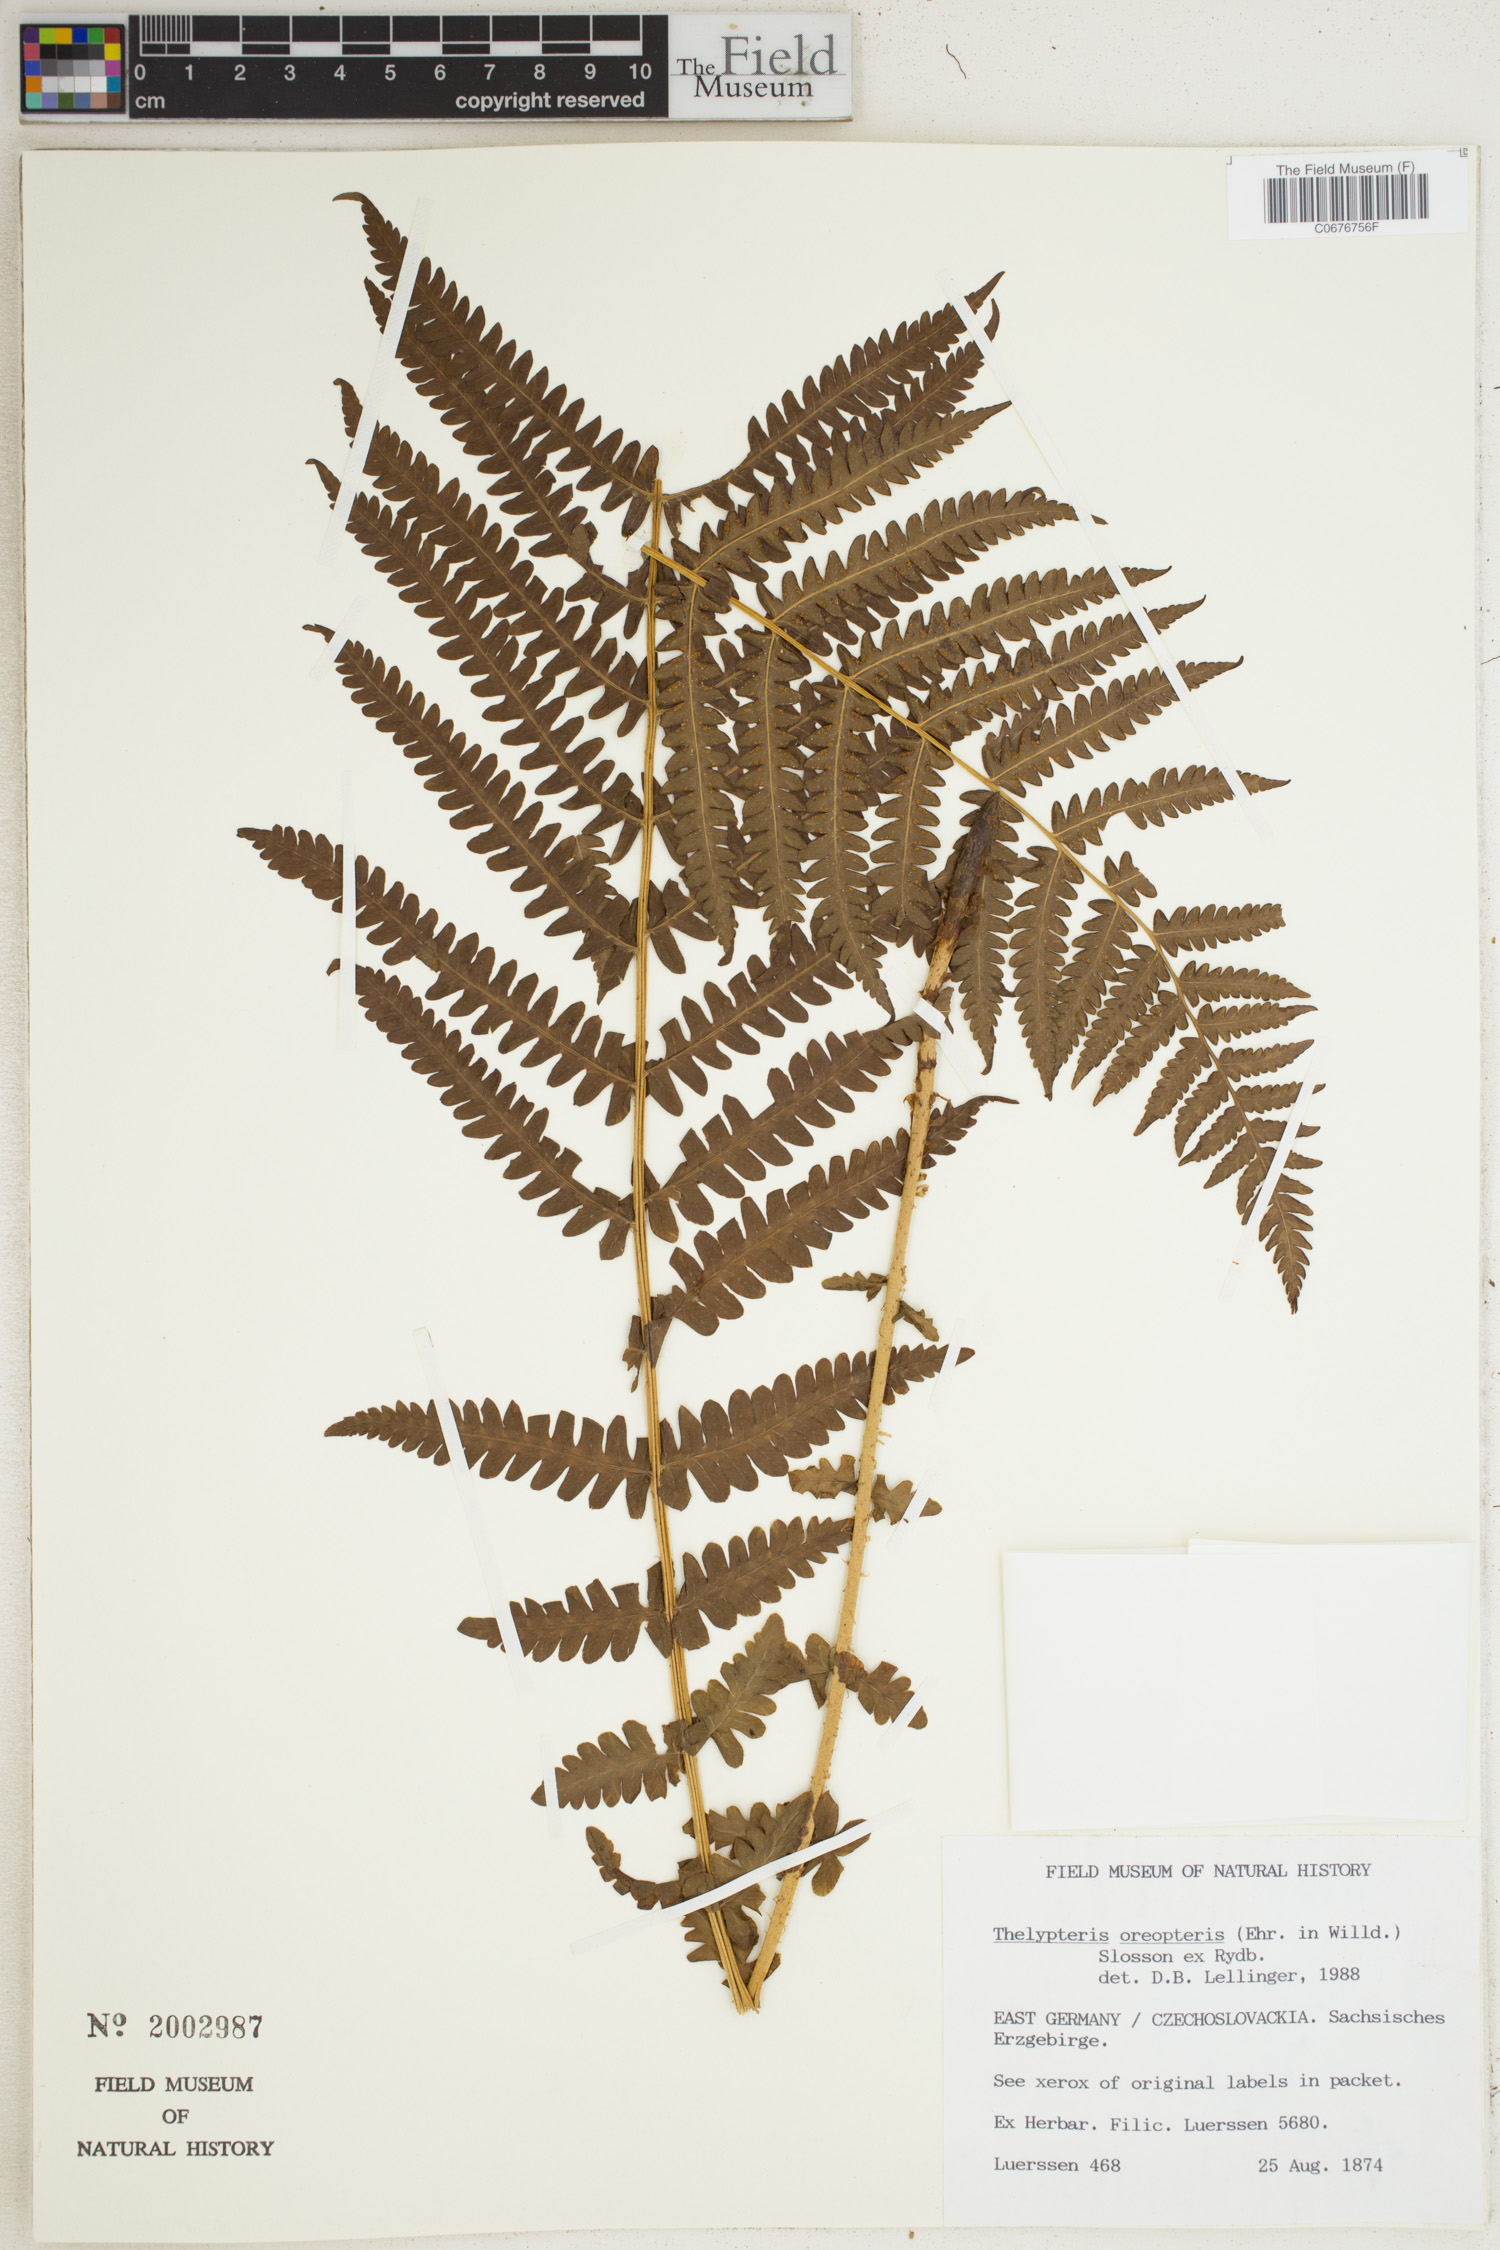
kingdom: Plantae
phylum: Tracheophyta
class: Polypodiopsida
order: Polypodiales
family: Thelypteridaceae
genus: Oreopteris
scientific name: Oreopteris limbosperma
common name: Lemon-scented fern
